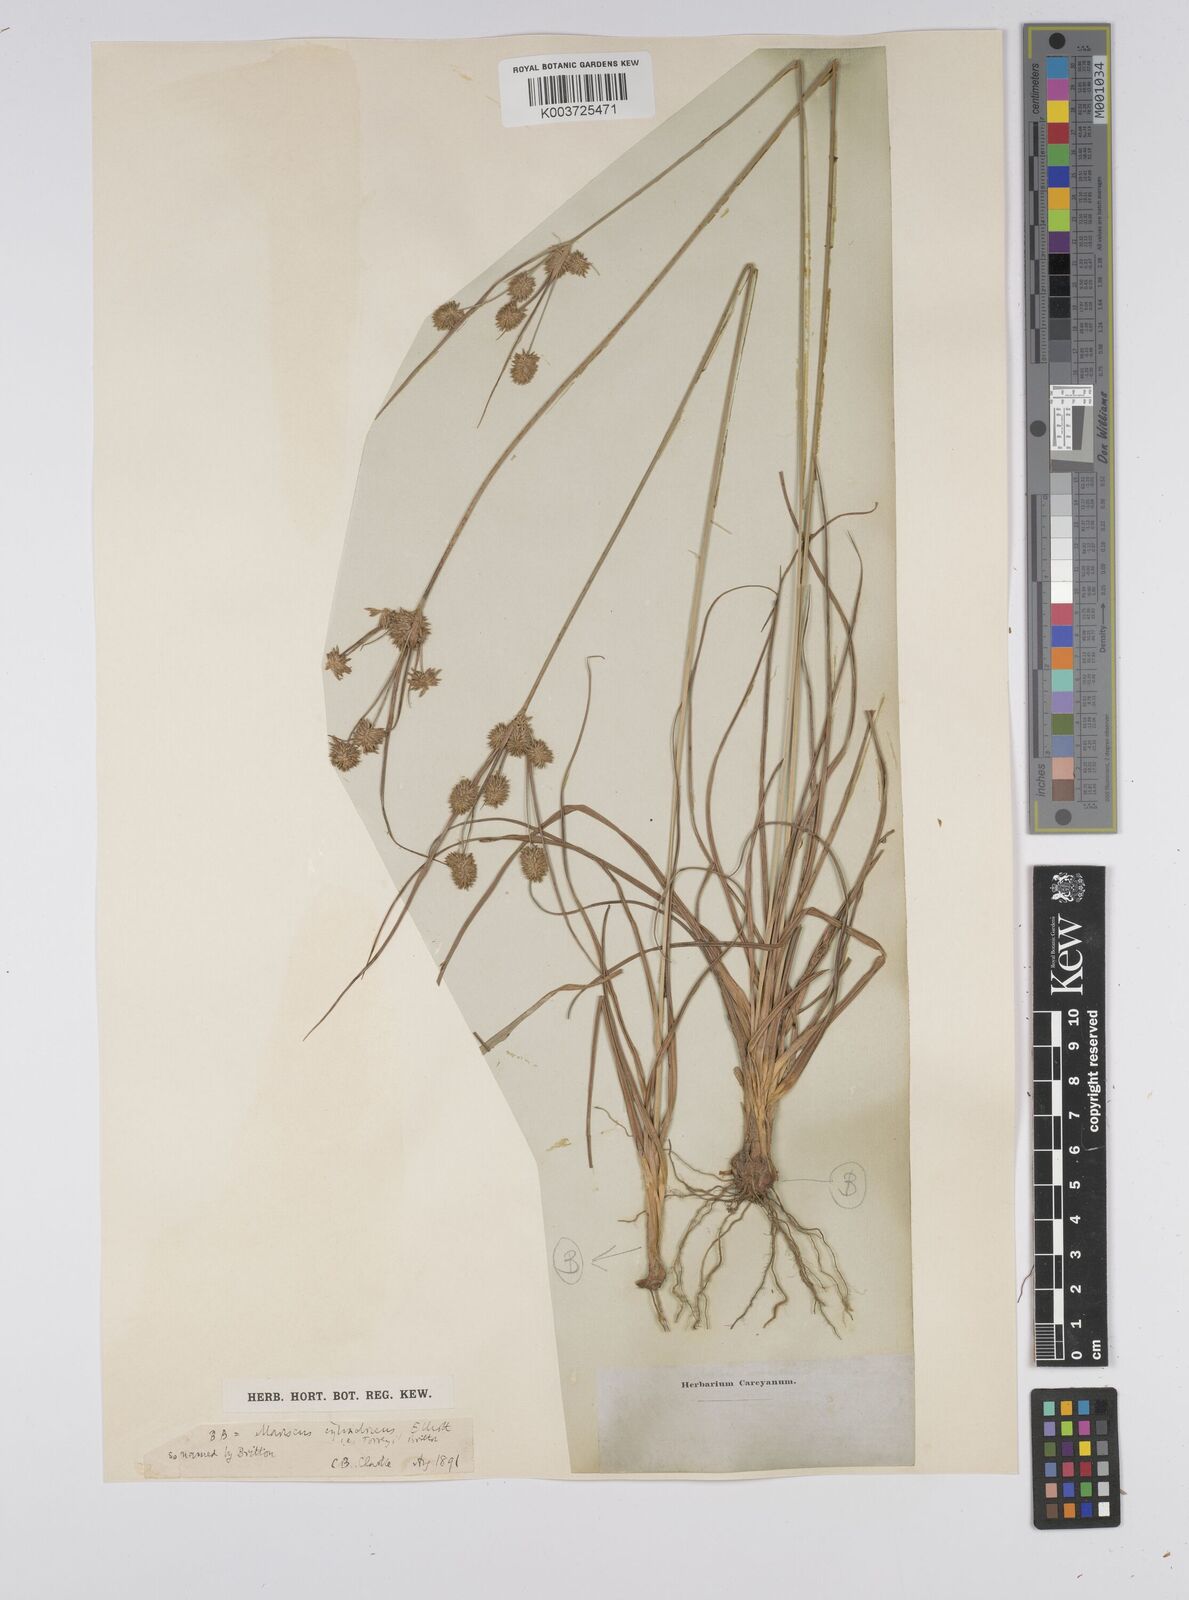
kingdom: Plantae
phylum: Tracheophyta
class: Liliopsida
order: Poales
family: Cyperaceae
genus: Cyperus
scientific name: Cyperus luzulae
